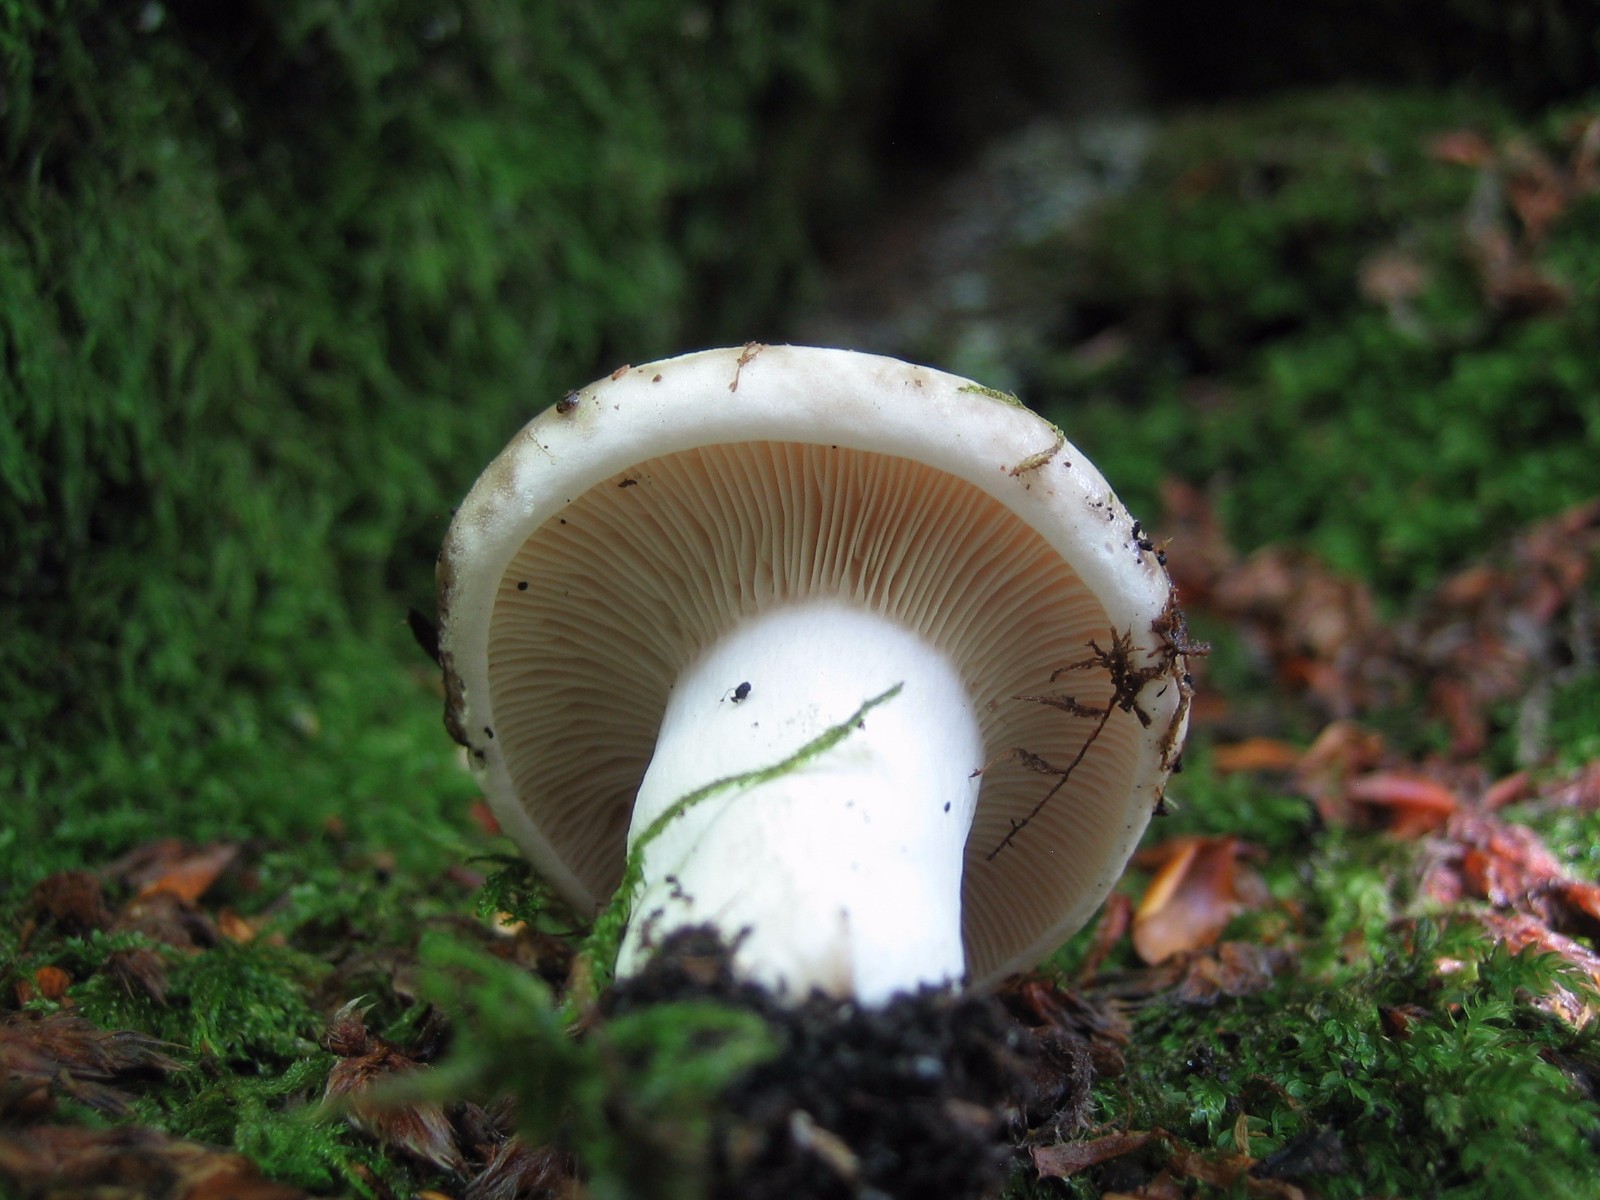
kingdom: Fungi
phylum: Basidiomycota
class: Agaricomycetes
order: Russulales
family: Russulaceae
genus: Russula
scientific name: Russula
